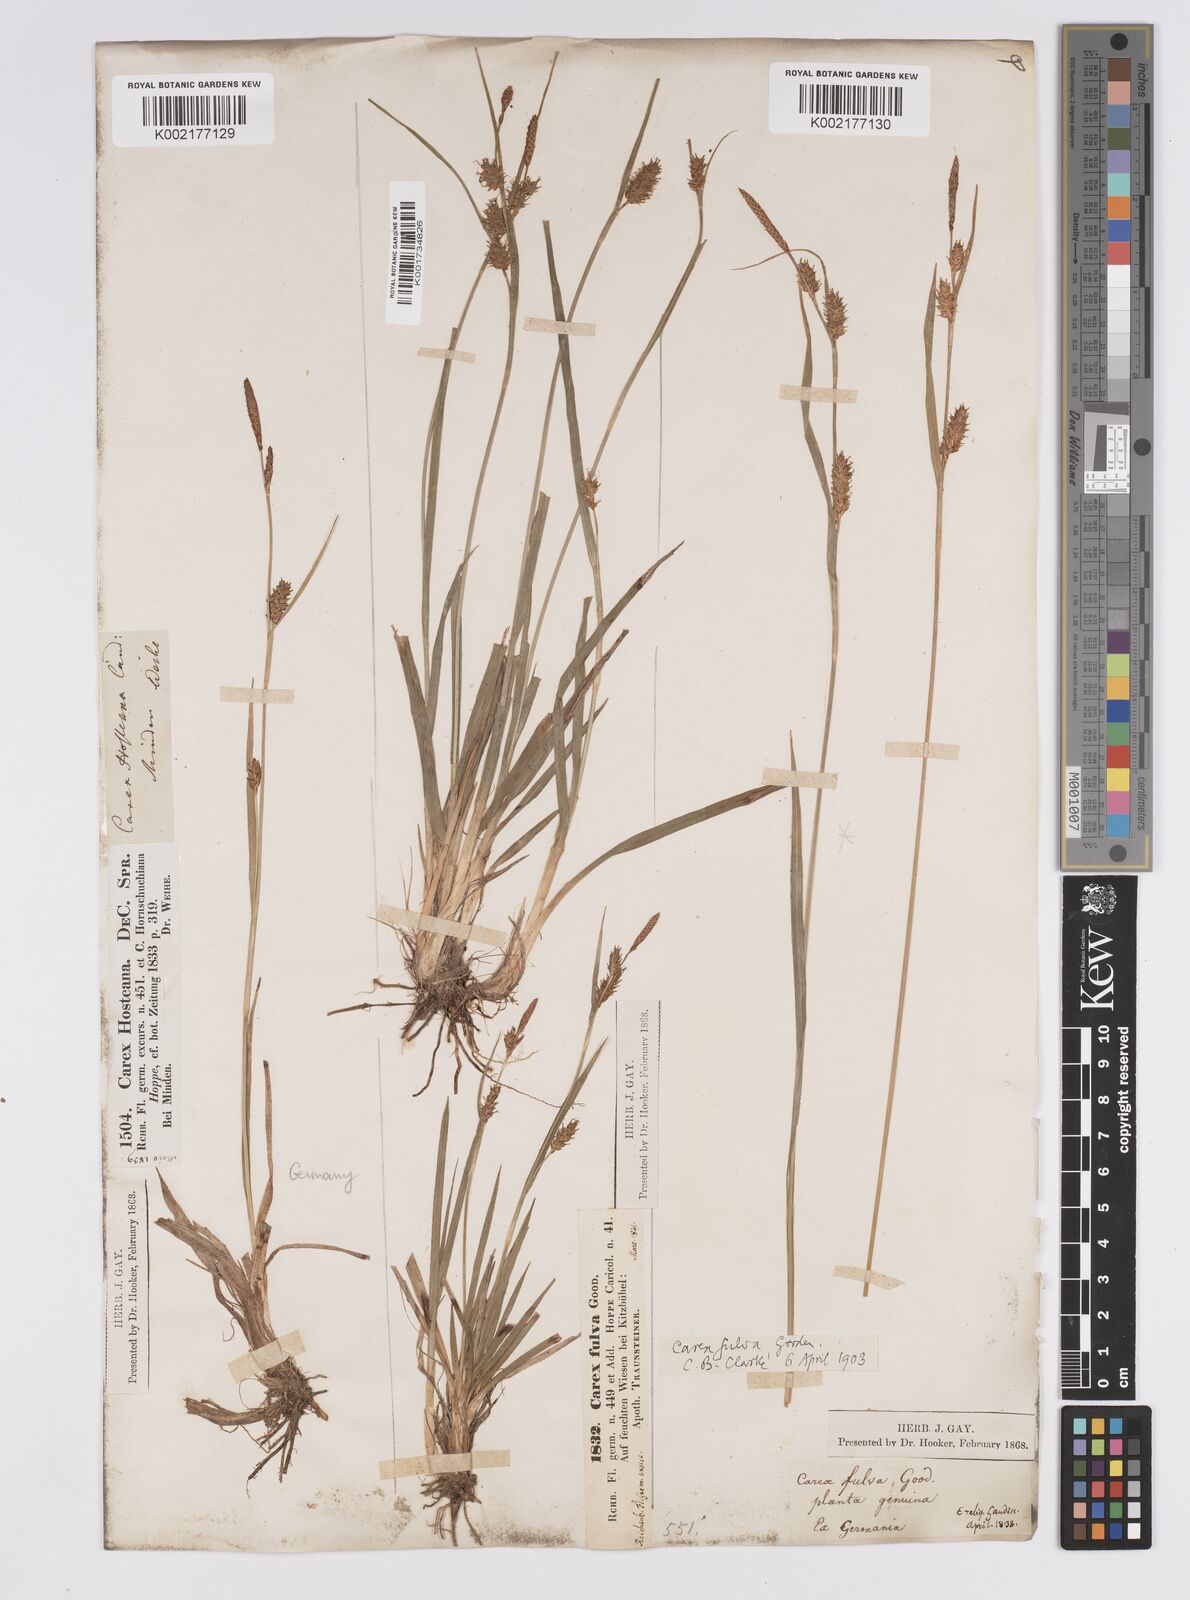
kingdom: Plantae
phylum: Tracheophyta
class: Liliopsida
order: Poales
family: Cyperaceae
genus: Carex
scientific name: Carex hostiana
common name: Tawny sedge
